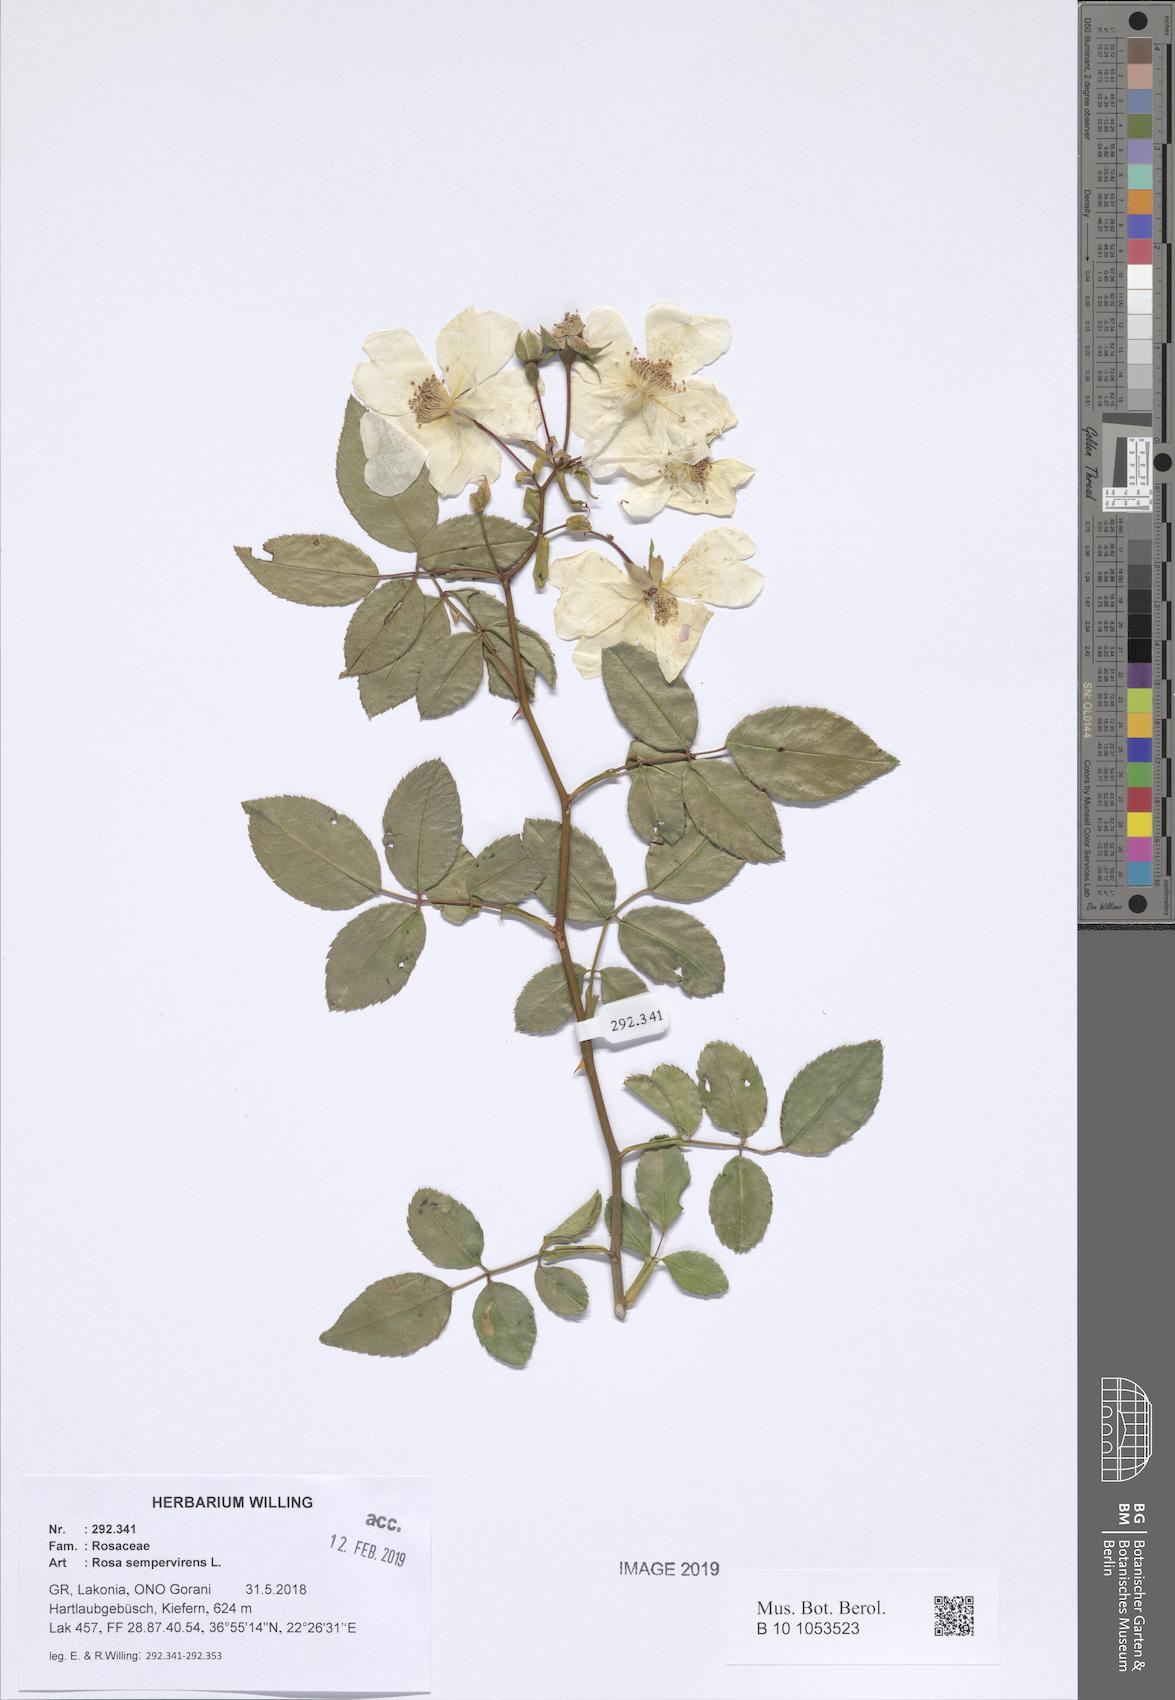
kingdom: Plantae
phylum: Tracheophyta
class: Magnoliopsida
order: Rosales
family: Rosaceae
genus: Rosa
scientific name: Rosa sempervirens
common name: Evergreen rose
